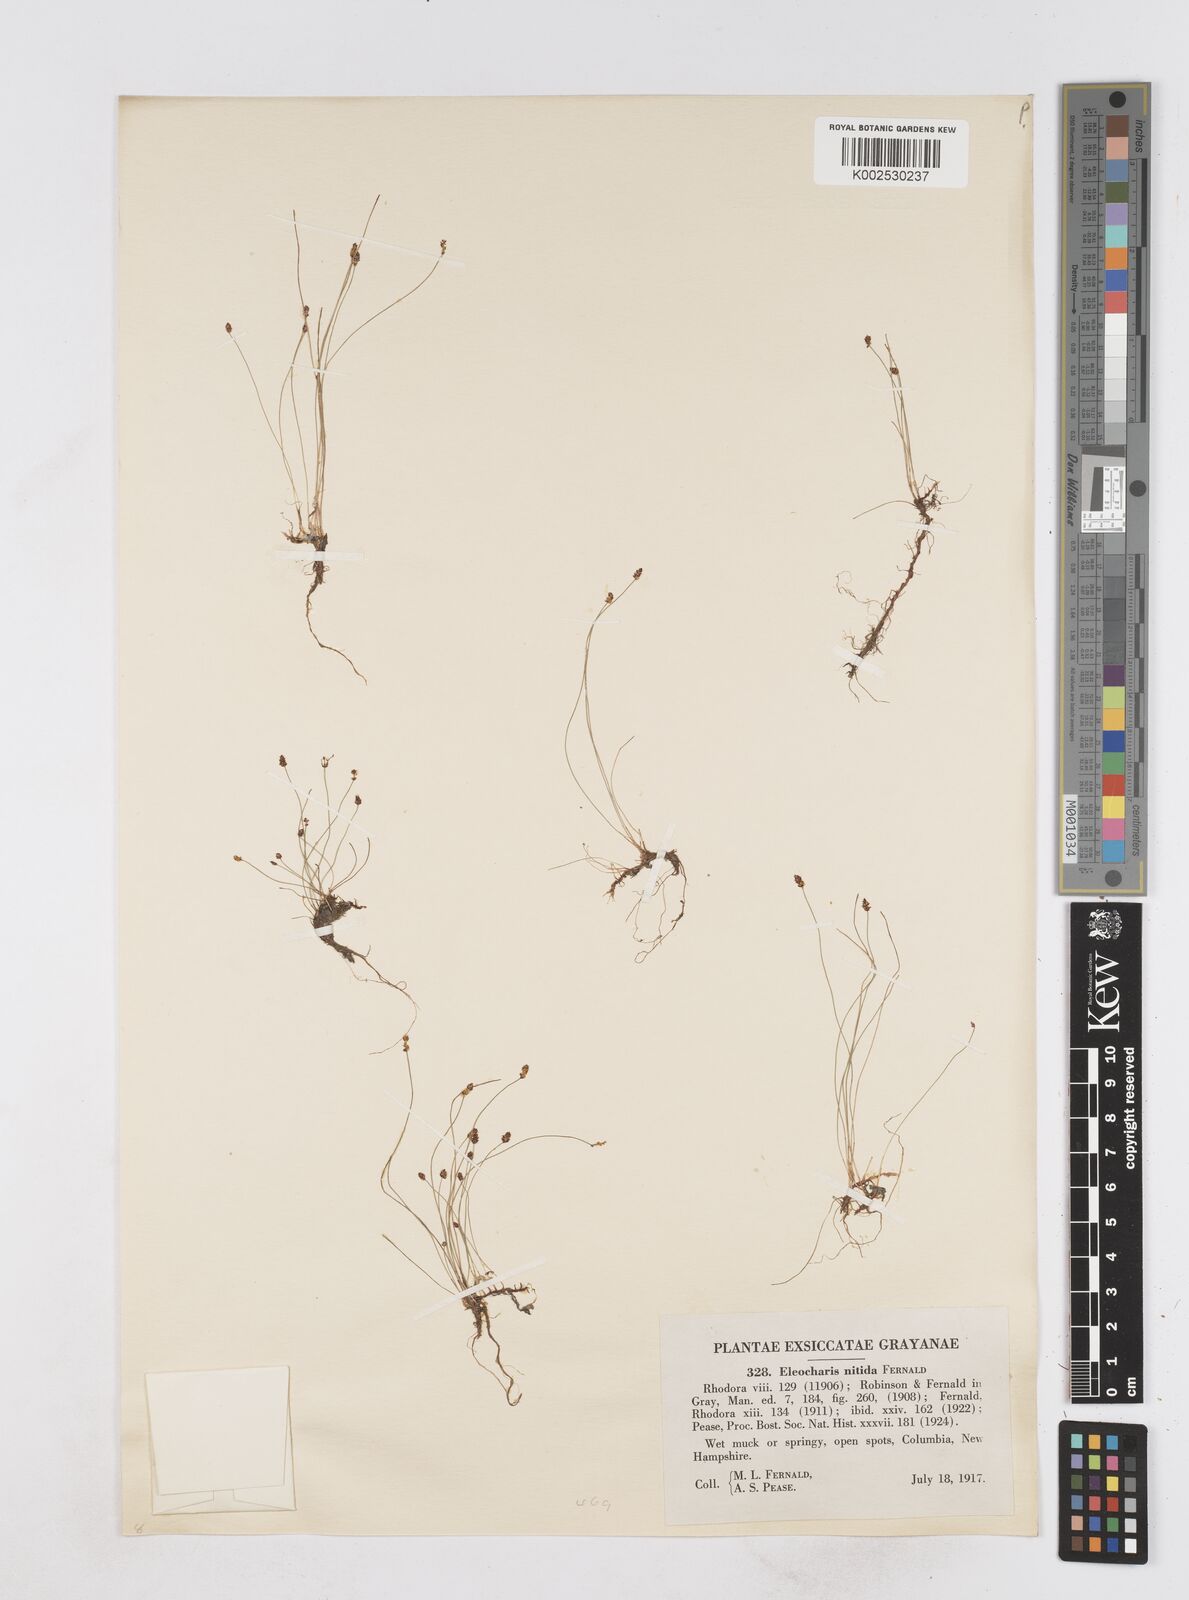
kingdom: Plantae
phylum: Tracheophyta
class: Liliopsida
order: Poales
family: Cyperaceae
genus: Eleocharis
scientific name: Eleocharis nitida
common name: Neat spikerush
